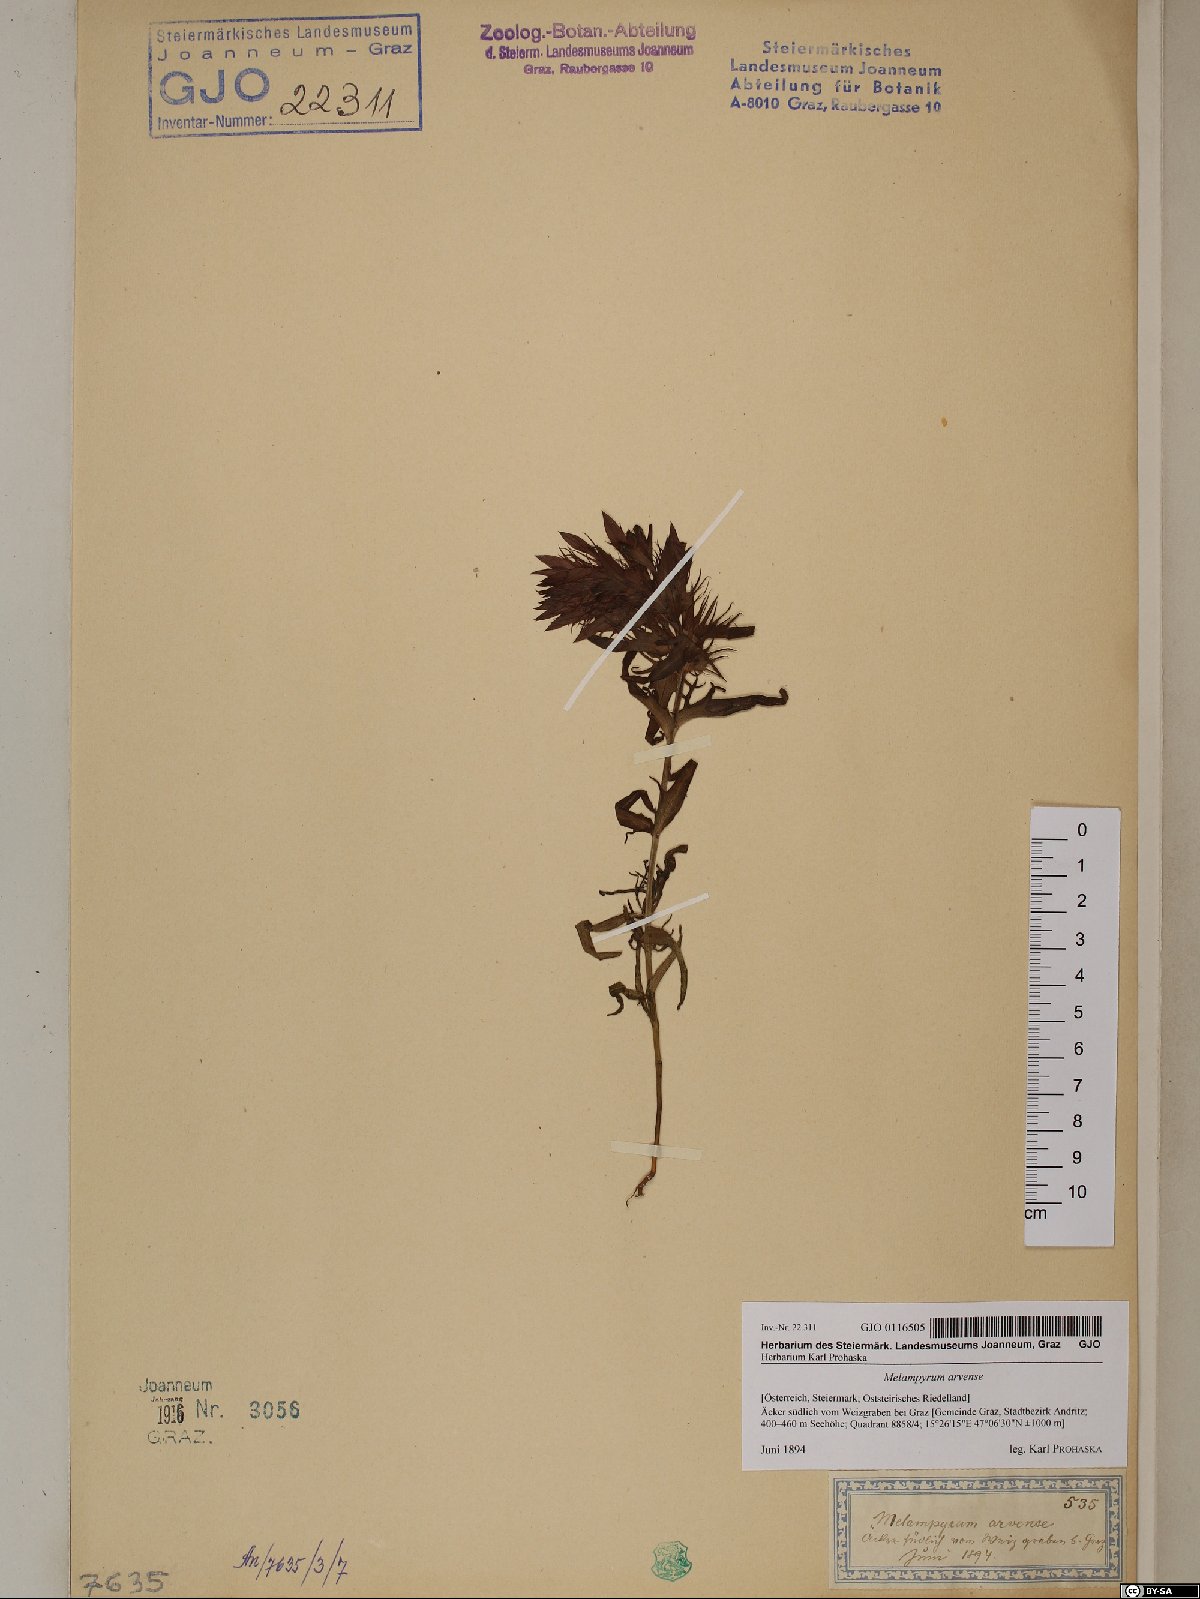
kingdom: Plantae
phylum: Tracheophyta
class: Magnoliopsida
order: Lamiales
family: Orobanchaceae
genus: Melampyrum
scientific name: Melampyrum arvense
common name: Field cow-wheat
